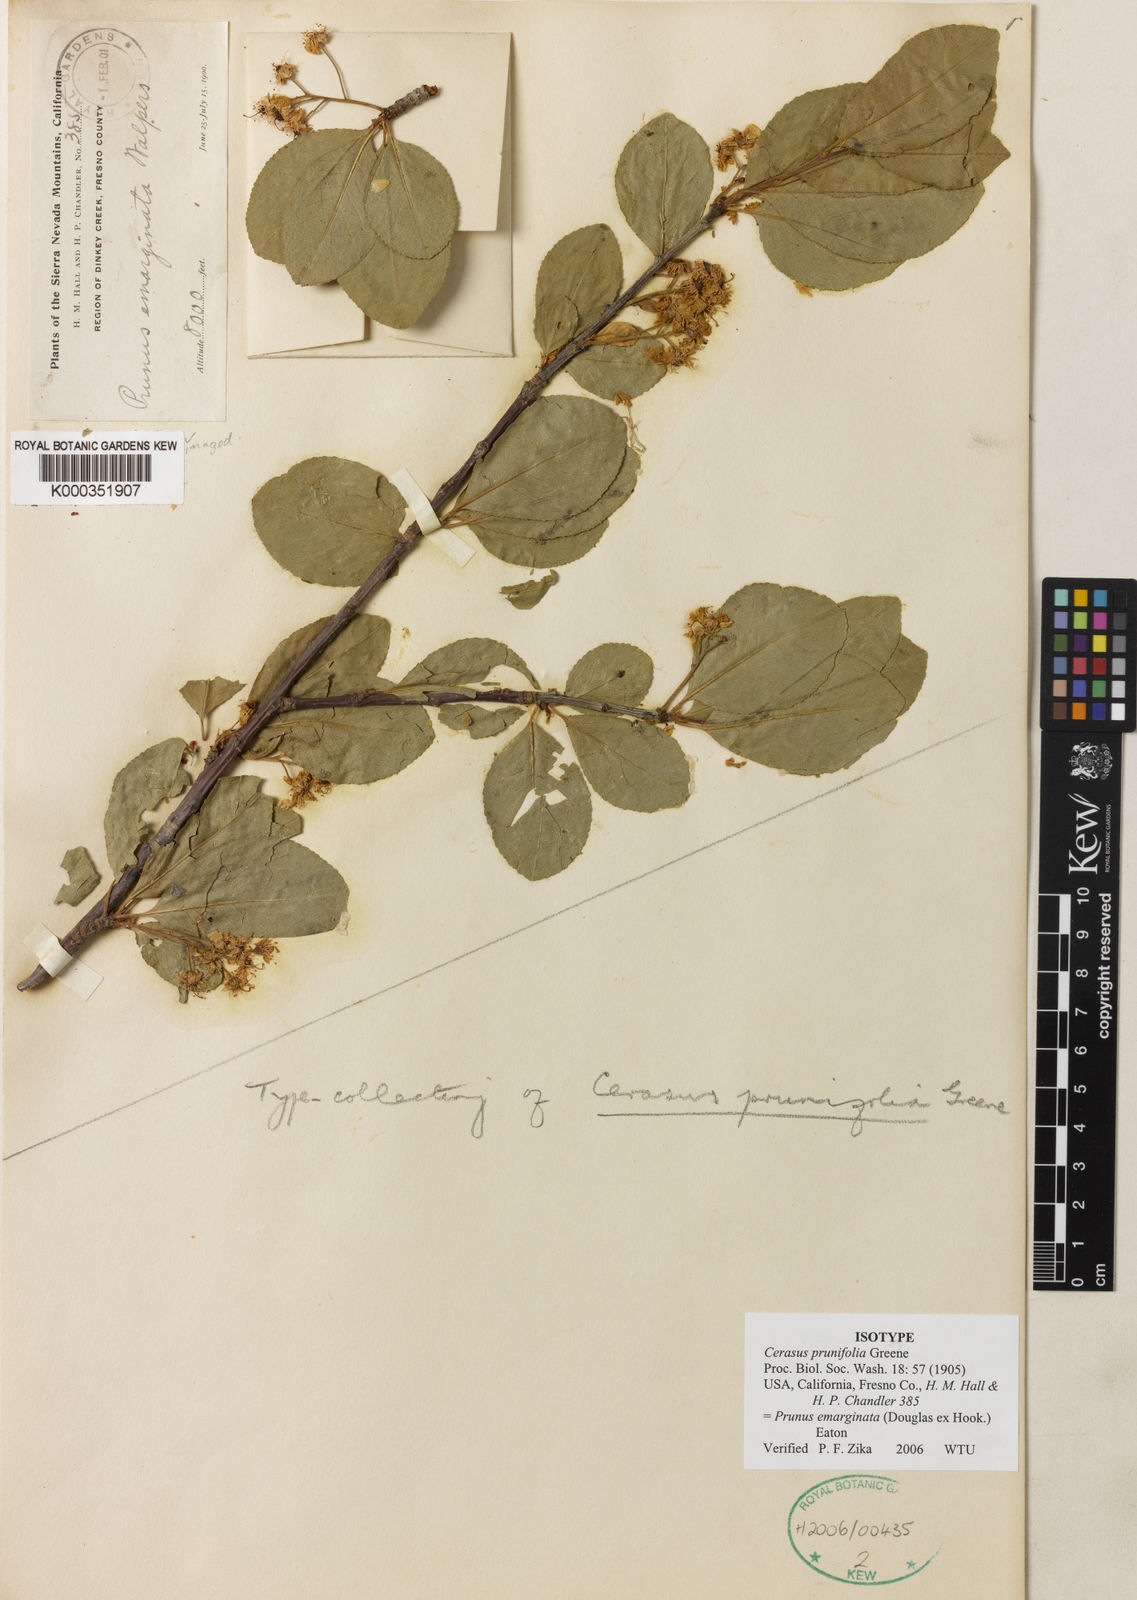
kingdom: Plantae
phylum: Tracheophyta
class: Magnoliopsida
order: Rosales
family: Rosaceae
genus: Prunus
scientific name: Prunus
